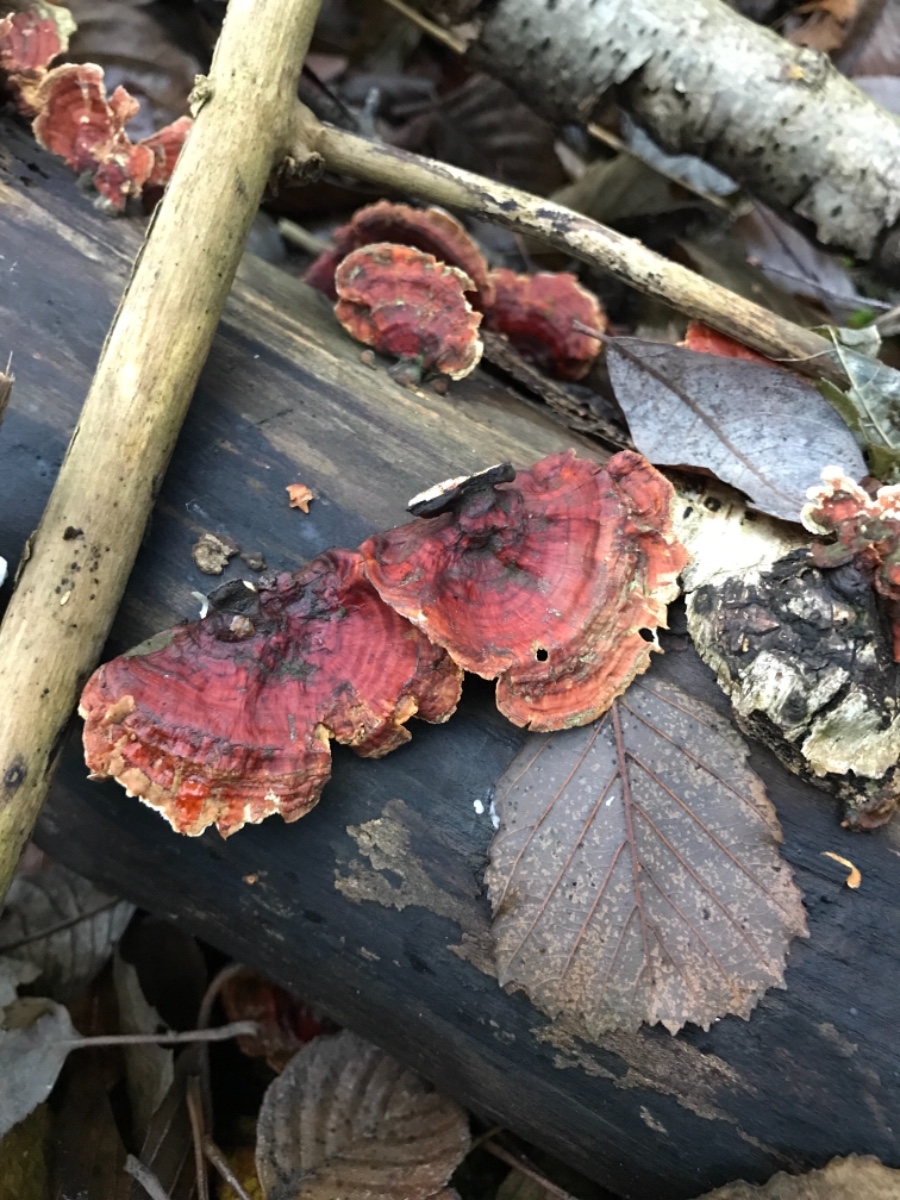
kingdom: Fungi
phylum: Basidiomycota
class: Agaricomycetes
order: Russulales
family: Stereaceae
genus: Stereum
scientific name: Stereum subtomentosum
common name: smuk lædersvamp
